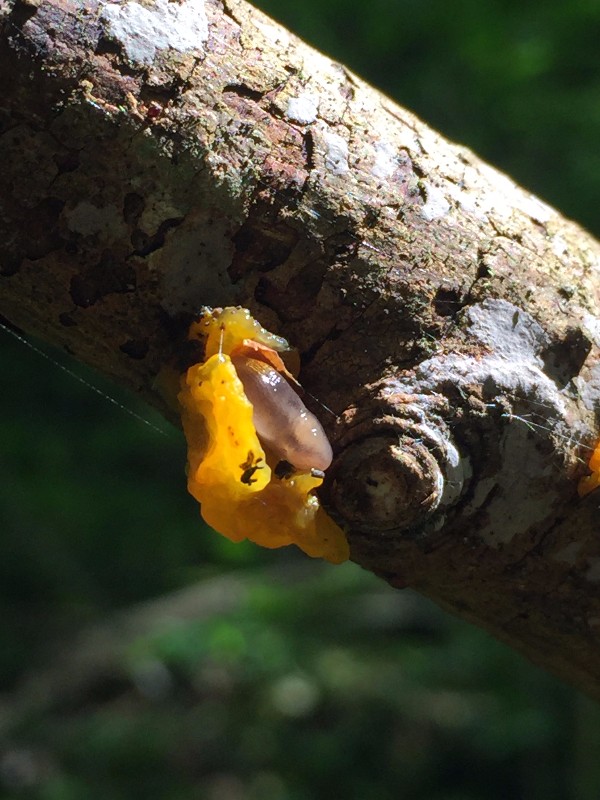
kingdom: Fungi
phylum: Basidiomycota
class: Tremellomycetes
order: Tremellales
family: Tremellaceae
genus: Tremella
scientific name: Tremella mesenterica
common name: gul bævresvamp
